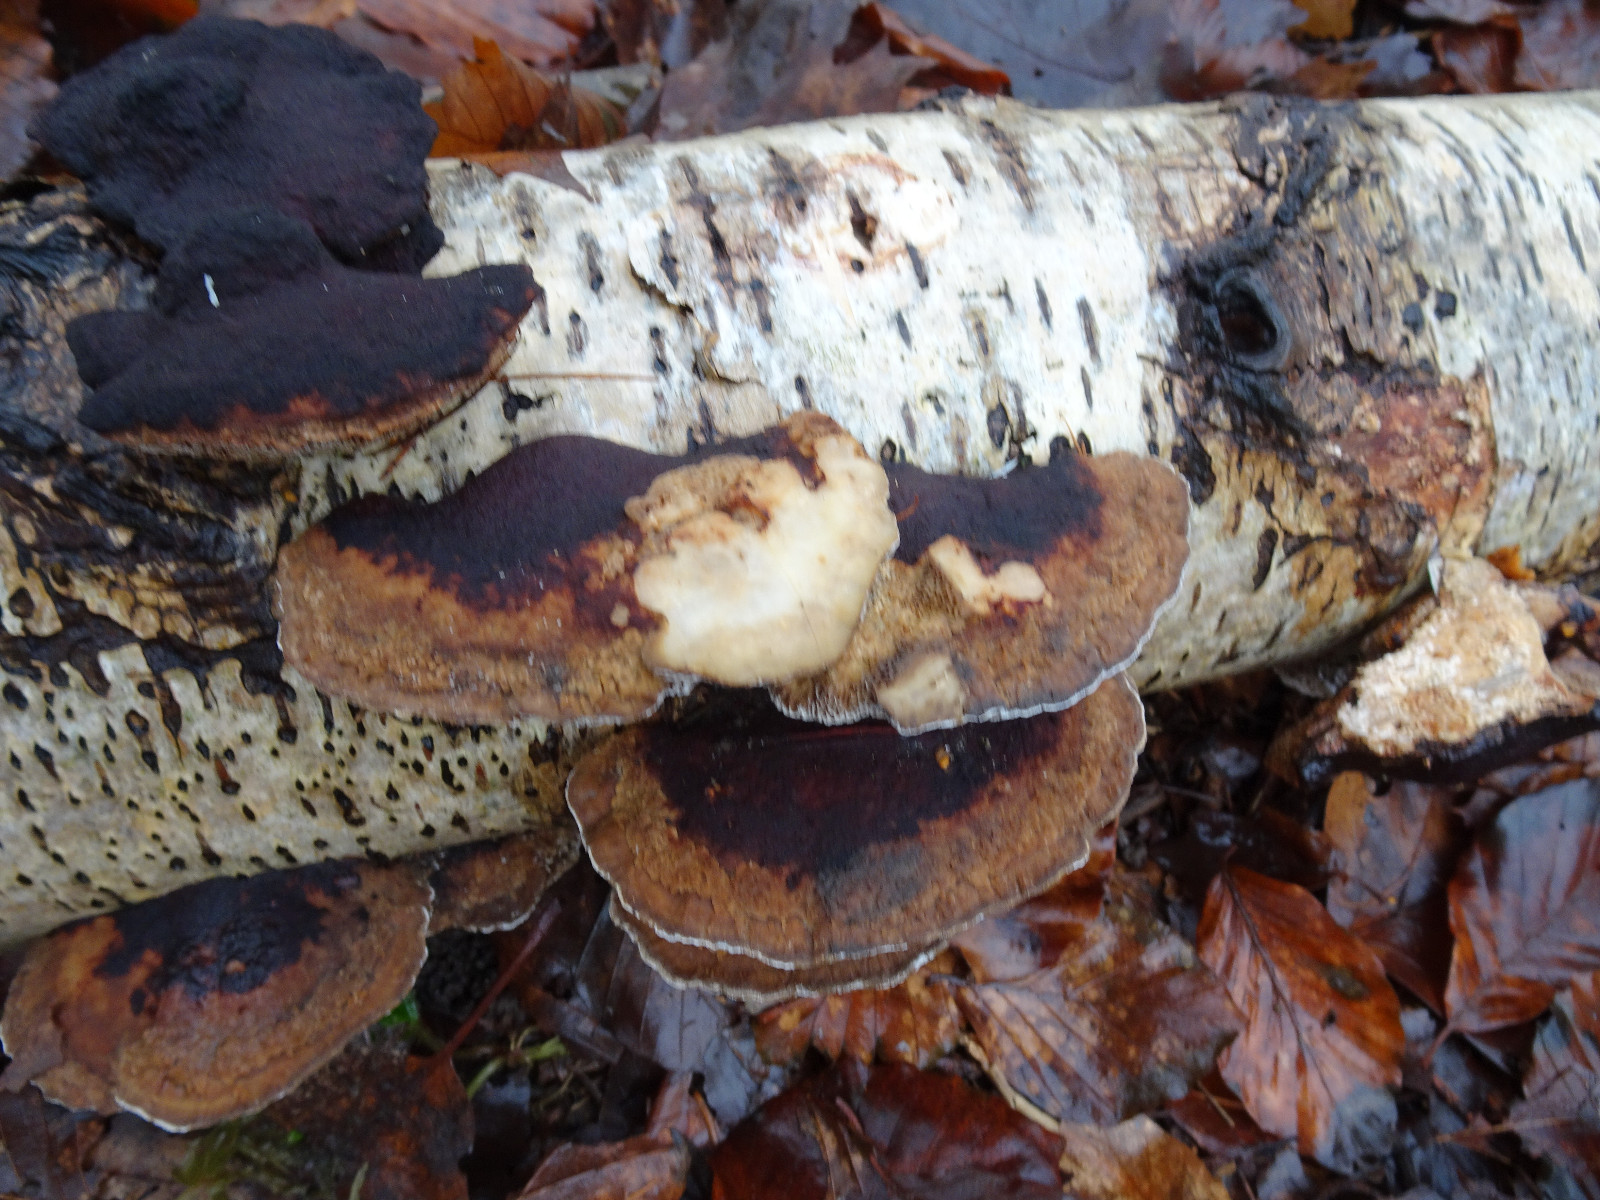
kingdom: Fungi
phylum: Basidiomycota
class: Agaricomycetes
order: Polyporales
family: Polyporaceae
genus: Daedaleopsis
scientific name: Daedaleopsis confragosa
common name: rødmende læderporesvamp
